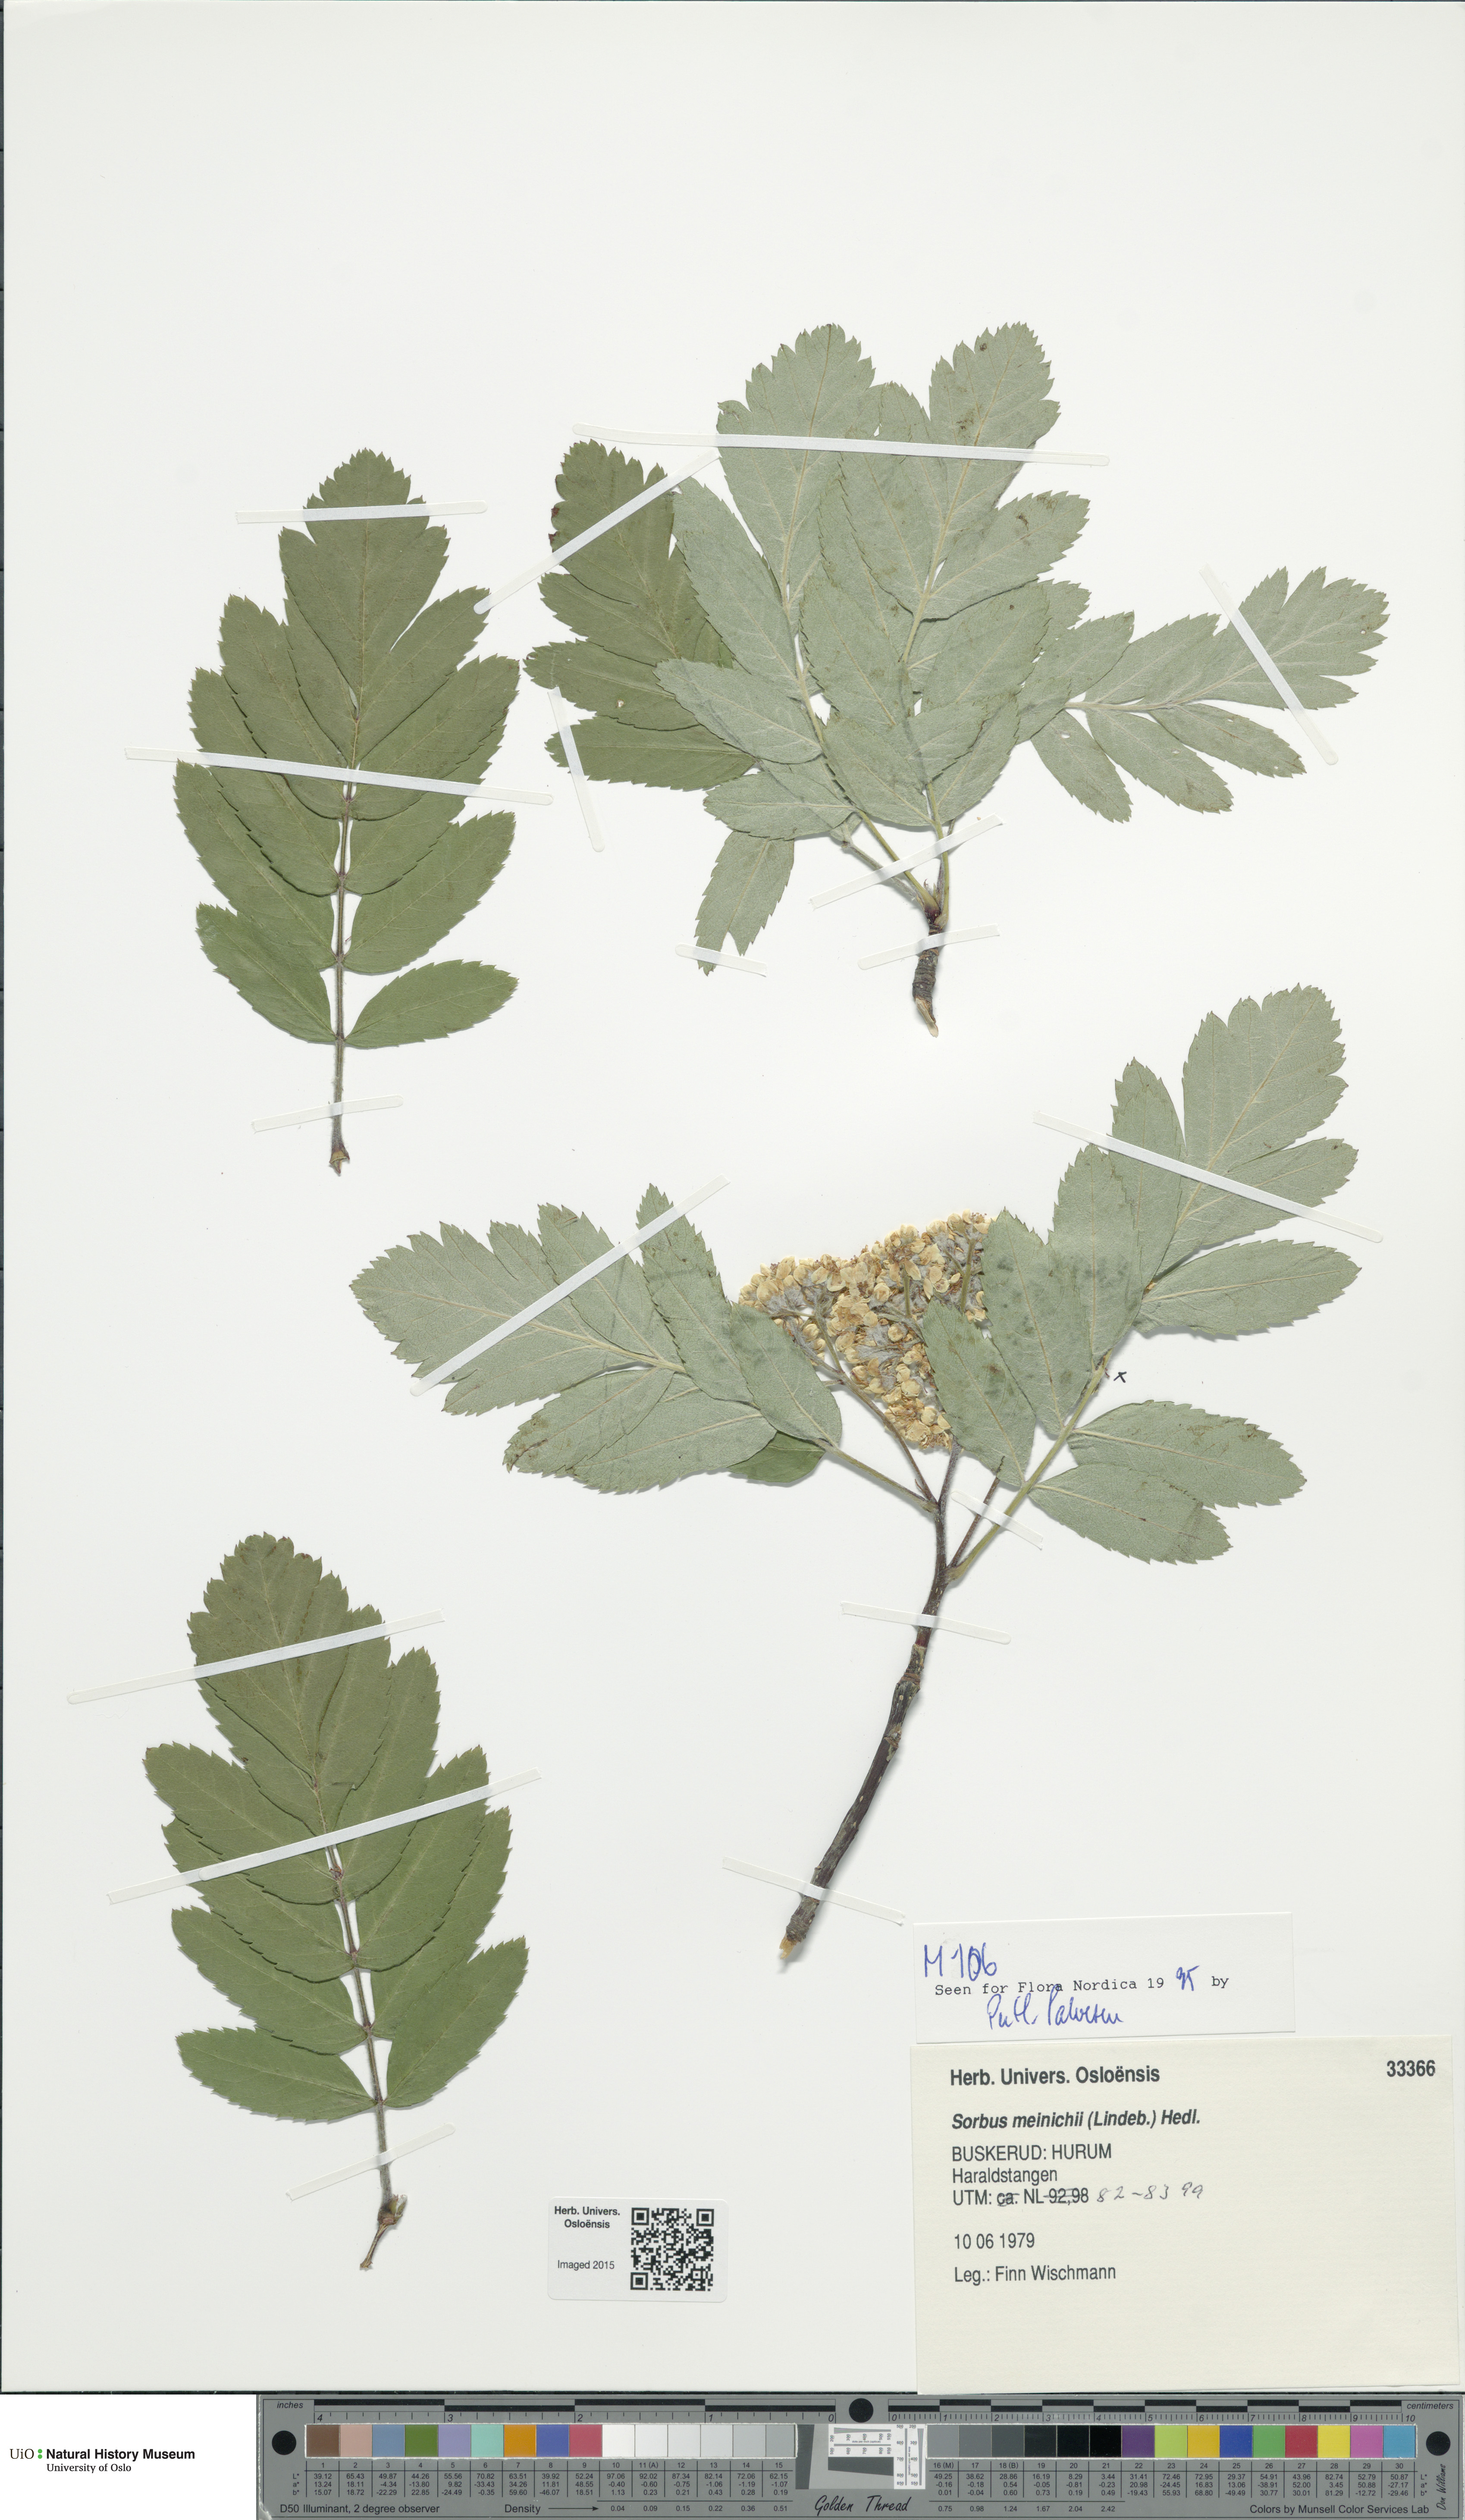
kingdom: Plantae
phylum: Tracheophyta
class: Magnoliopsida
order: Rosales
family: Rosaceae
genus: Hedlundia
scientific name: Hedlundia meinichii
